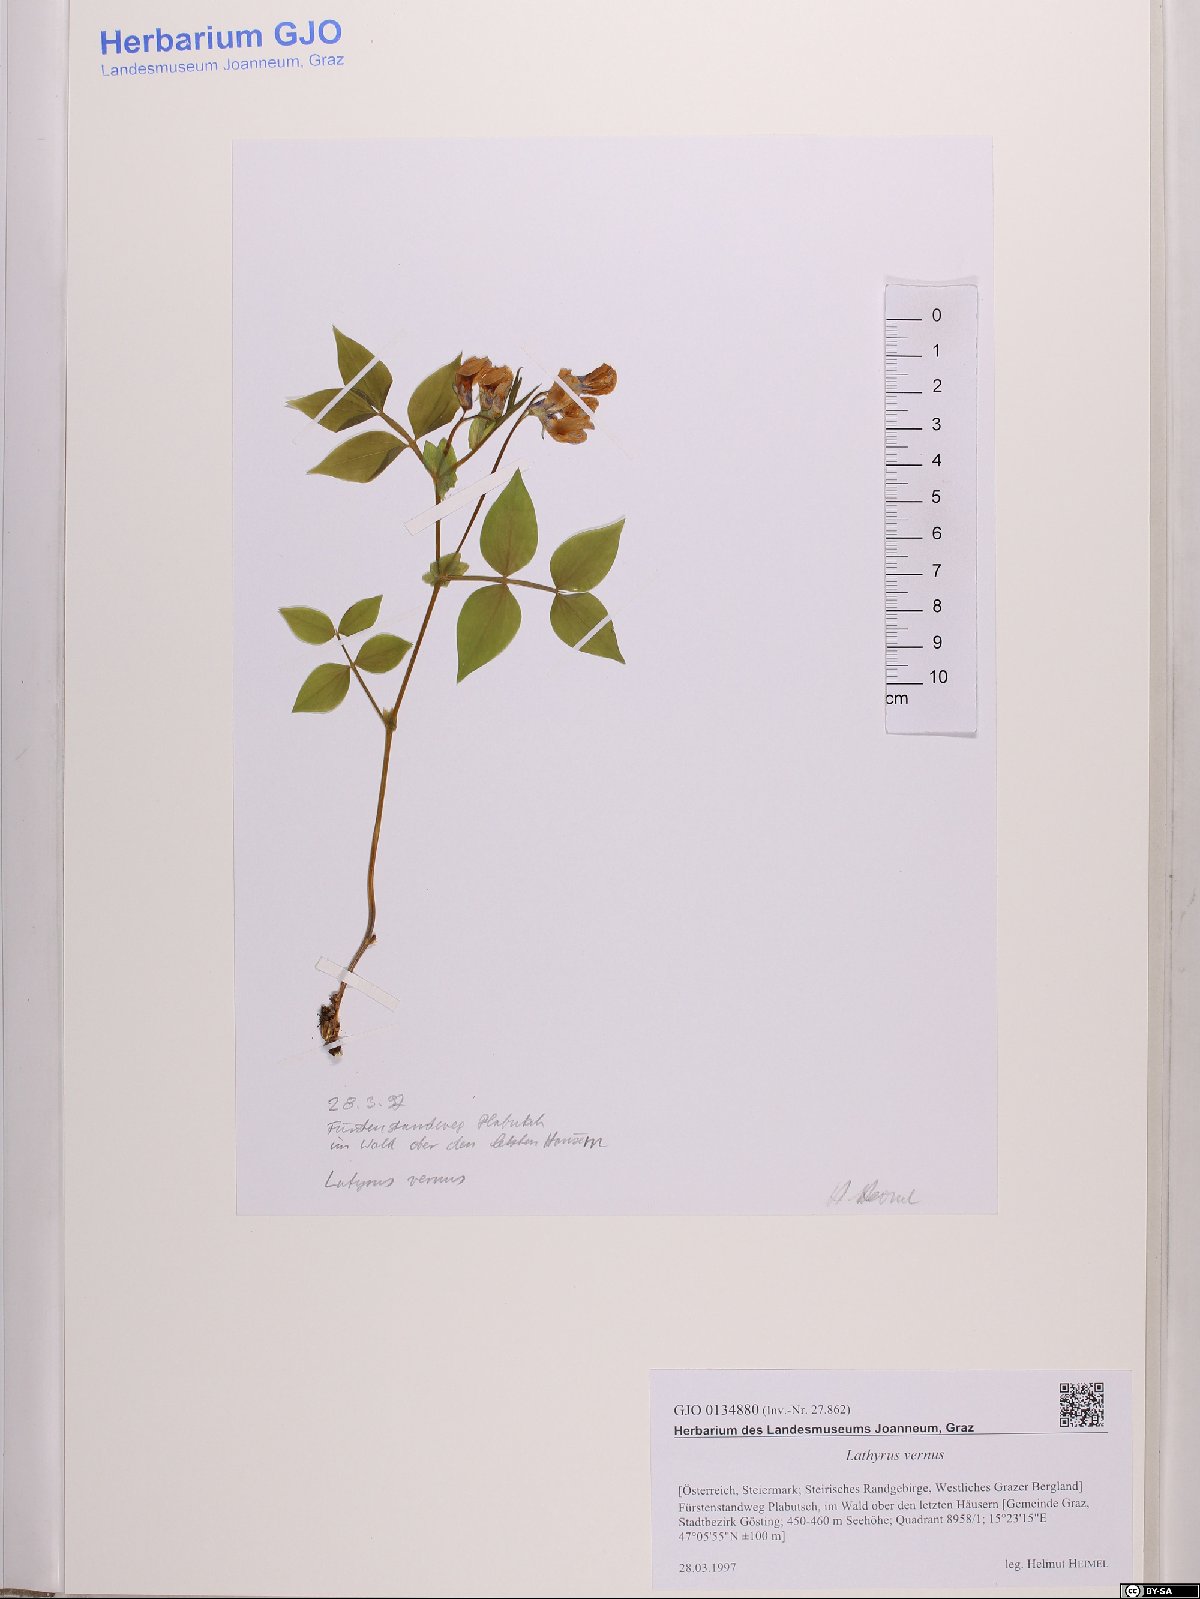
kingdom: Plantae
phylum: Tracheophyta
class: Magnoliopsida
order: Fabales
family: Fabaceae
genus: Lathyrus
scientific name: Lathyrus vernus
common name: Spring pea
